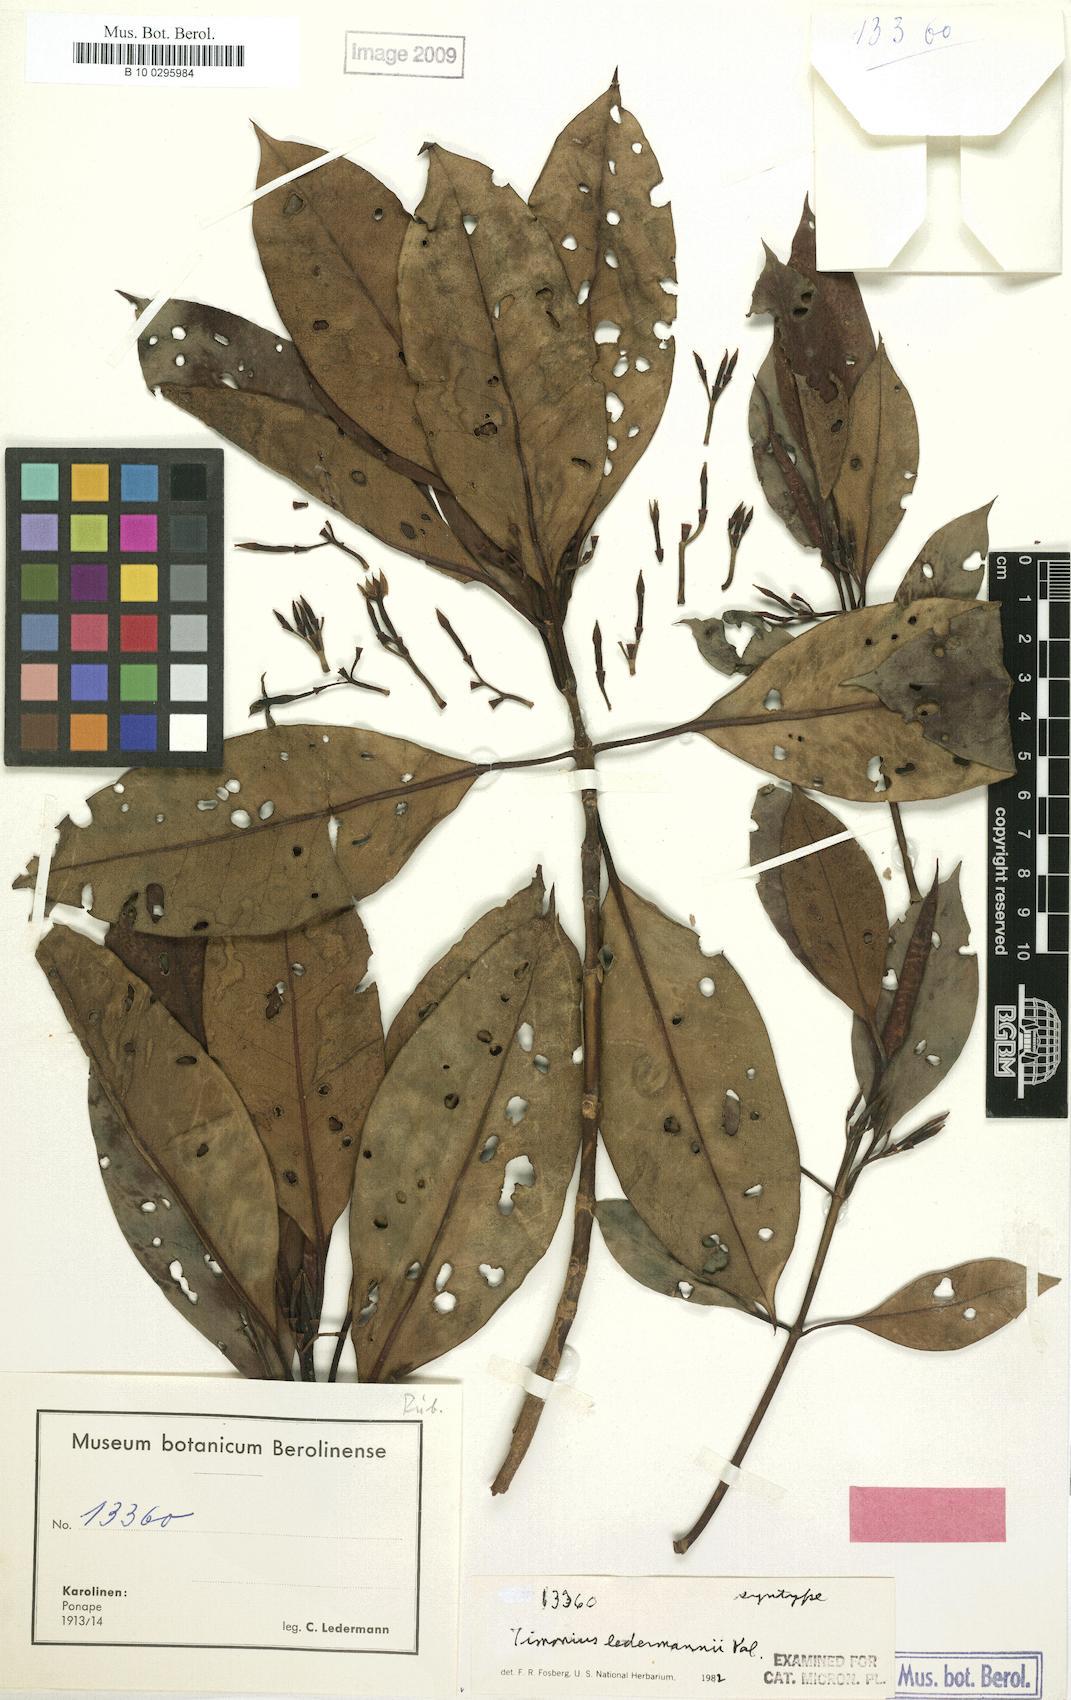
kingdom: Plantae
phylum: Tracheophyta
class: Magnoliopsida
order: Gentianales
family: Rubiaceae
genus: Timonius
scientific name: Timonius ledermannii
